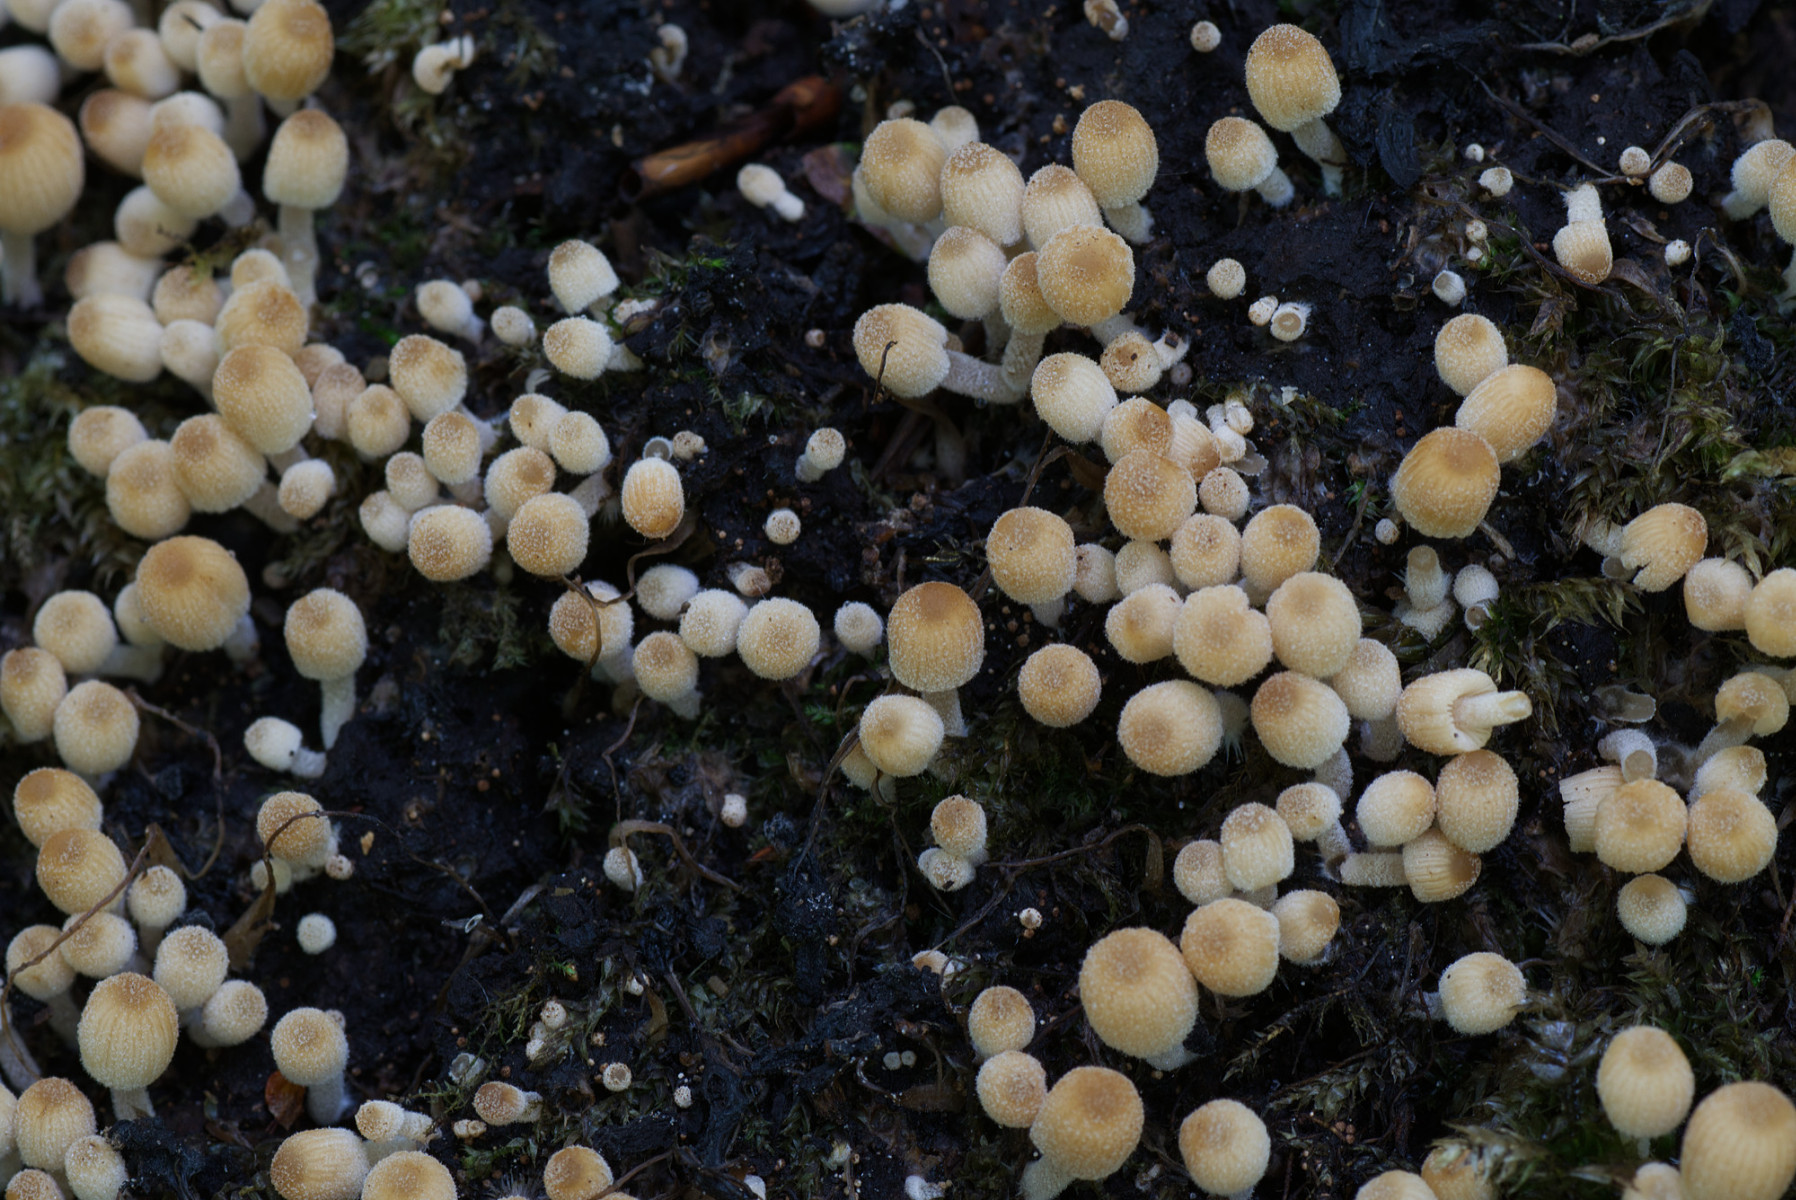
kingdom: Fungi
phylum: Basidiomycota
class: Agaricomycetes
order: Agaricales
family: Psathyrellaceae
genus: Coprinellus
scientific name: Coprinellus
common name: blækhat
